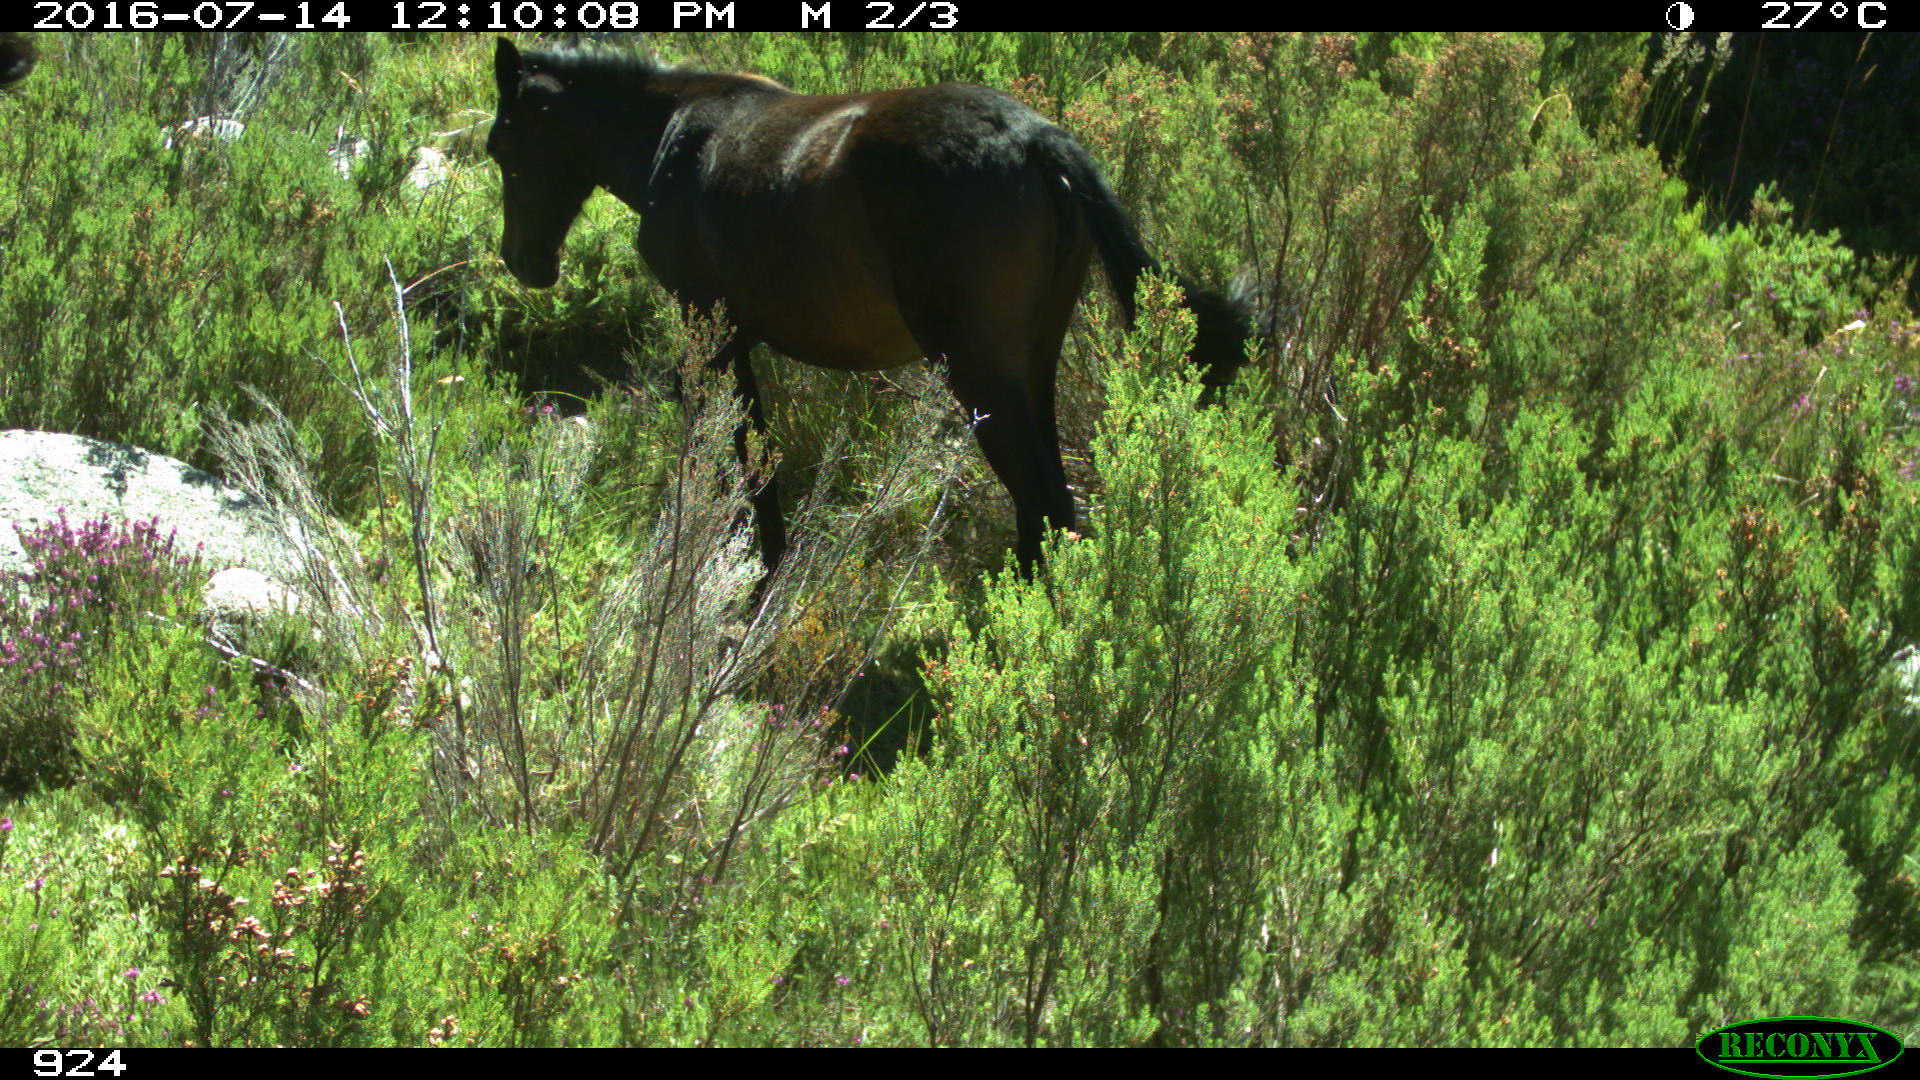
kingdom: Animalia
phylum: Chordata
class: Mammalia
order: Perissodactyla
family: Equidae
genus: Equus
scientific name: Equus caballus
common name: Horse
